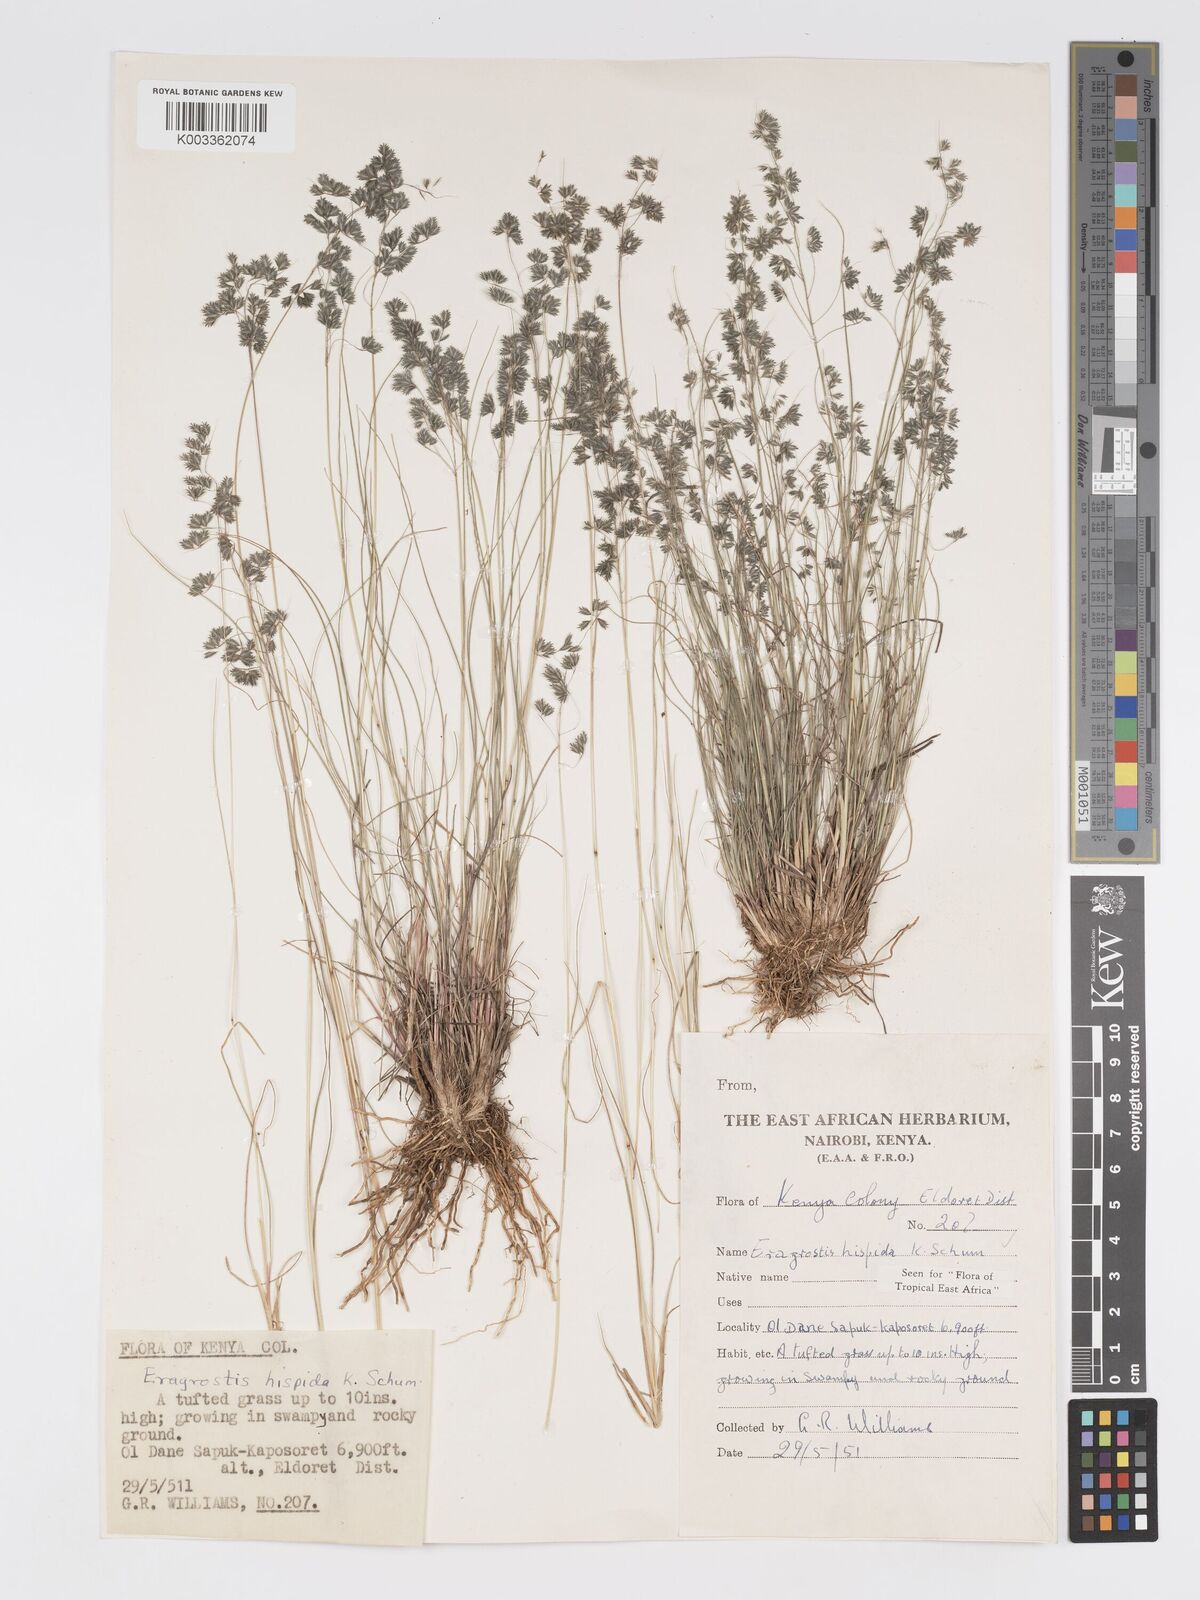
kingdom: Plantae
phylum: Tracheophyta
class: Liliopsida
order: Poales
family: Poaceae
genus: Eragrostis
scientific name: Eragrostis hispida
